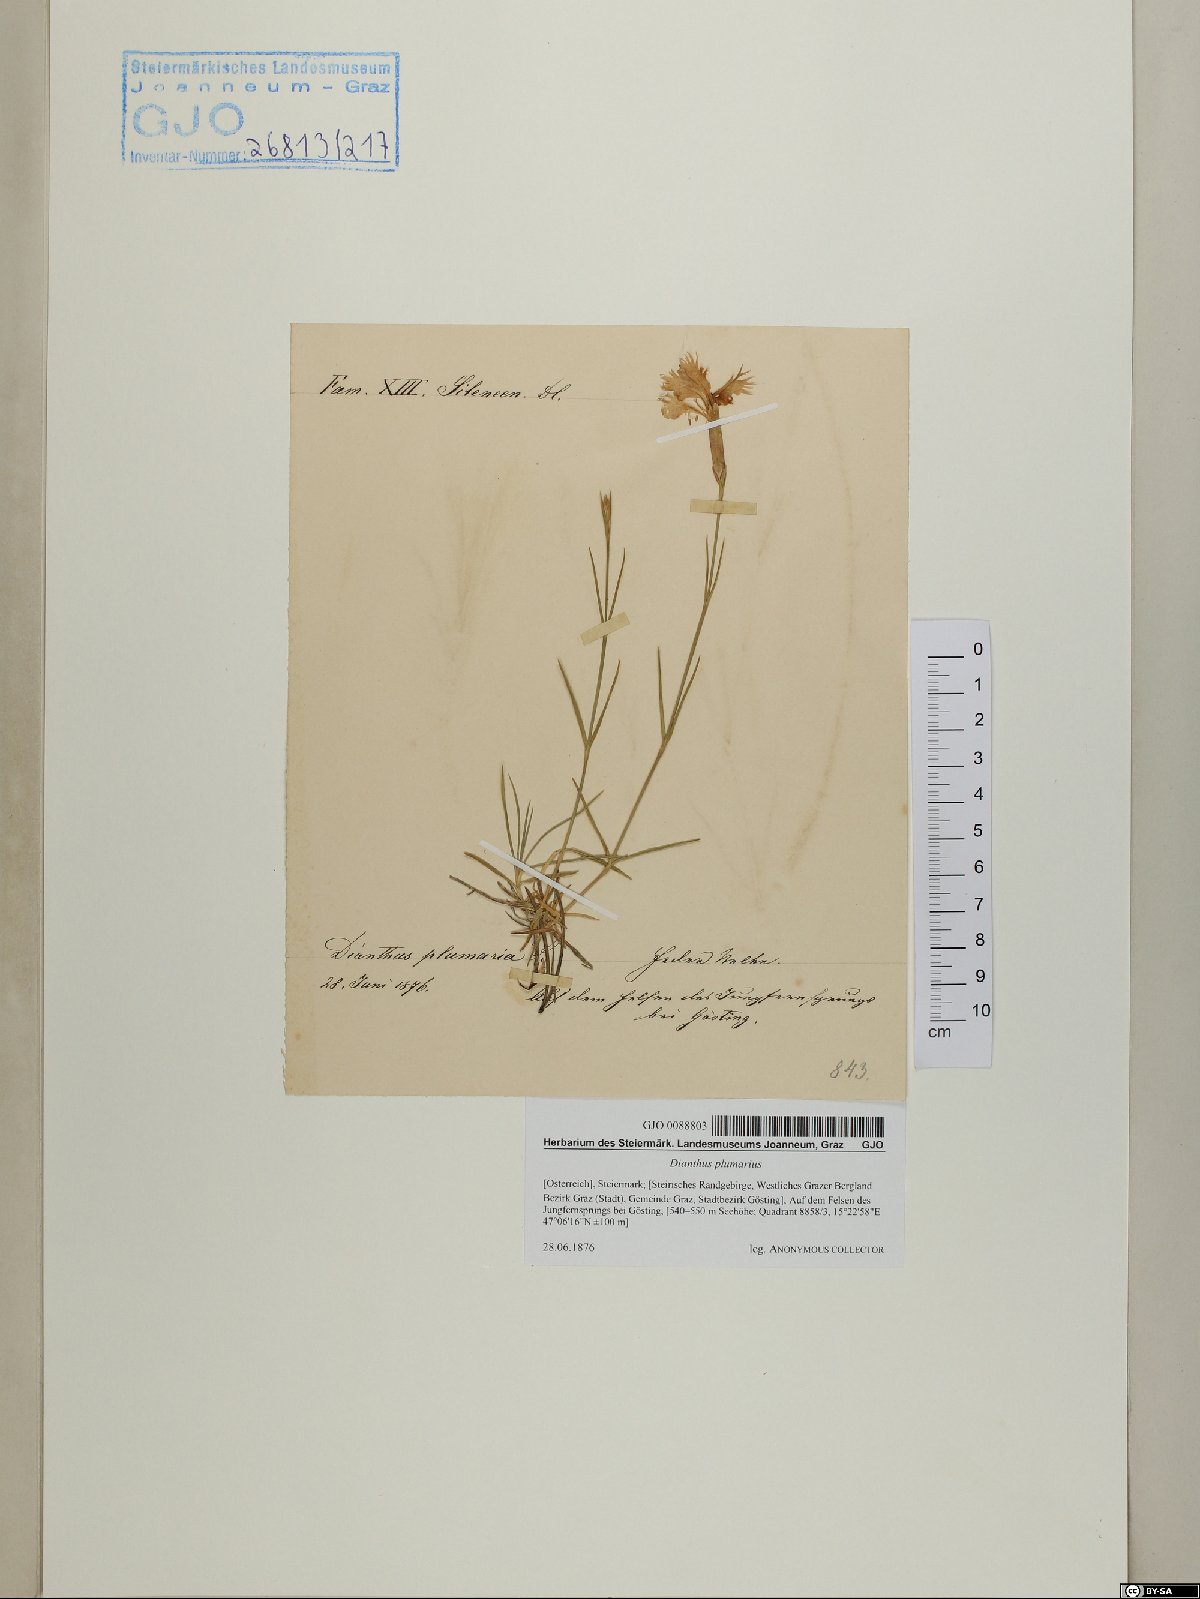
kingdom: Plantae
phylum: Tracheophyta
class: Magnoliopsida
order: Caryophyllales
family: Caryophyllaceae
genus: Dianthus
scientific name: Dianthus plumarius
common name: Pink
